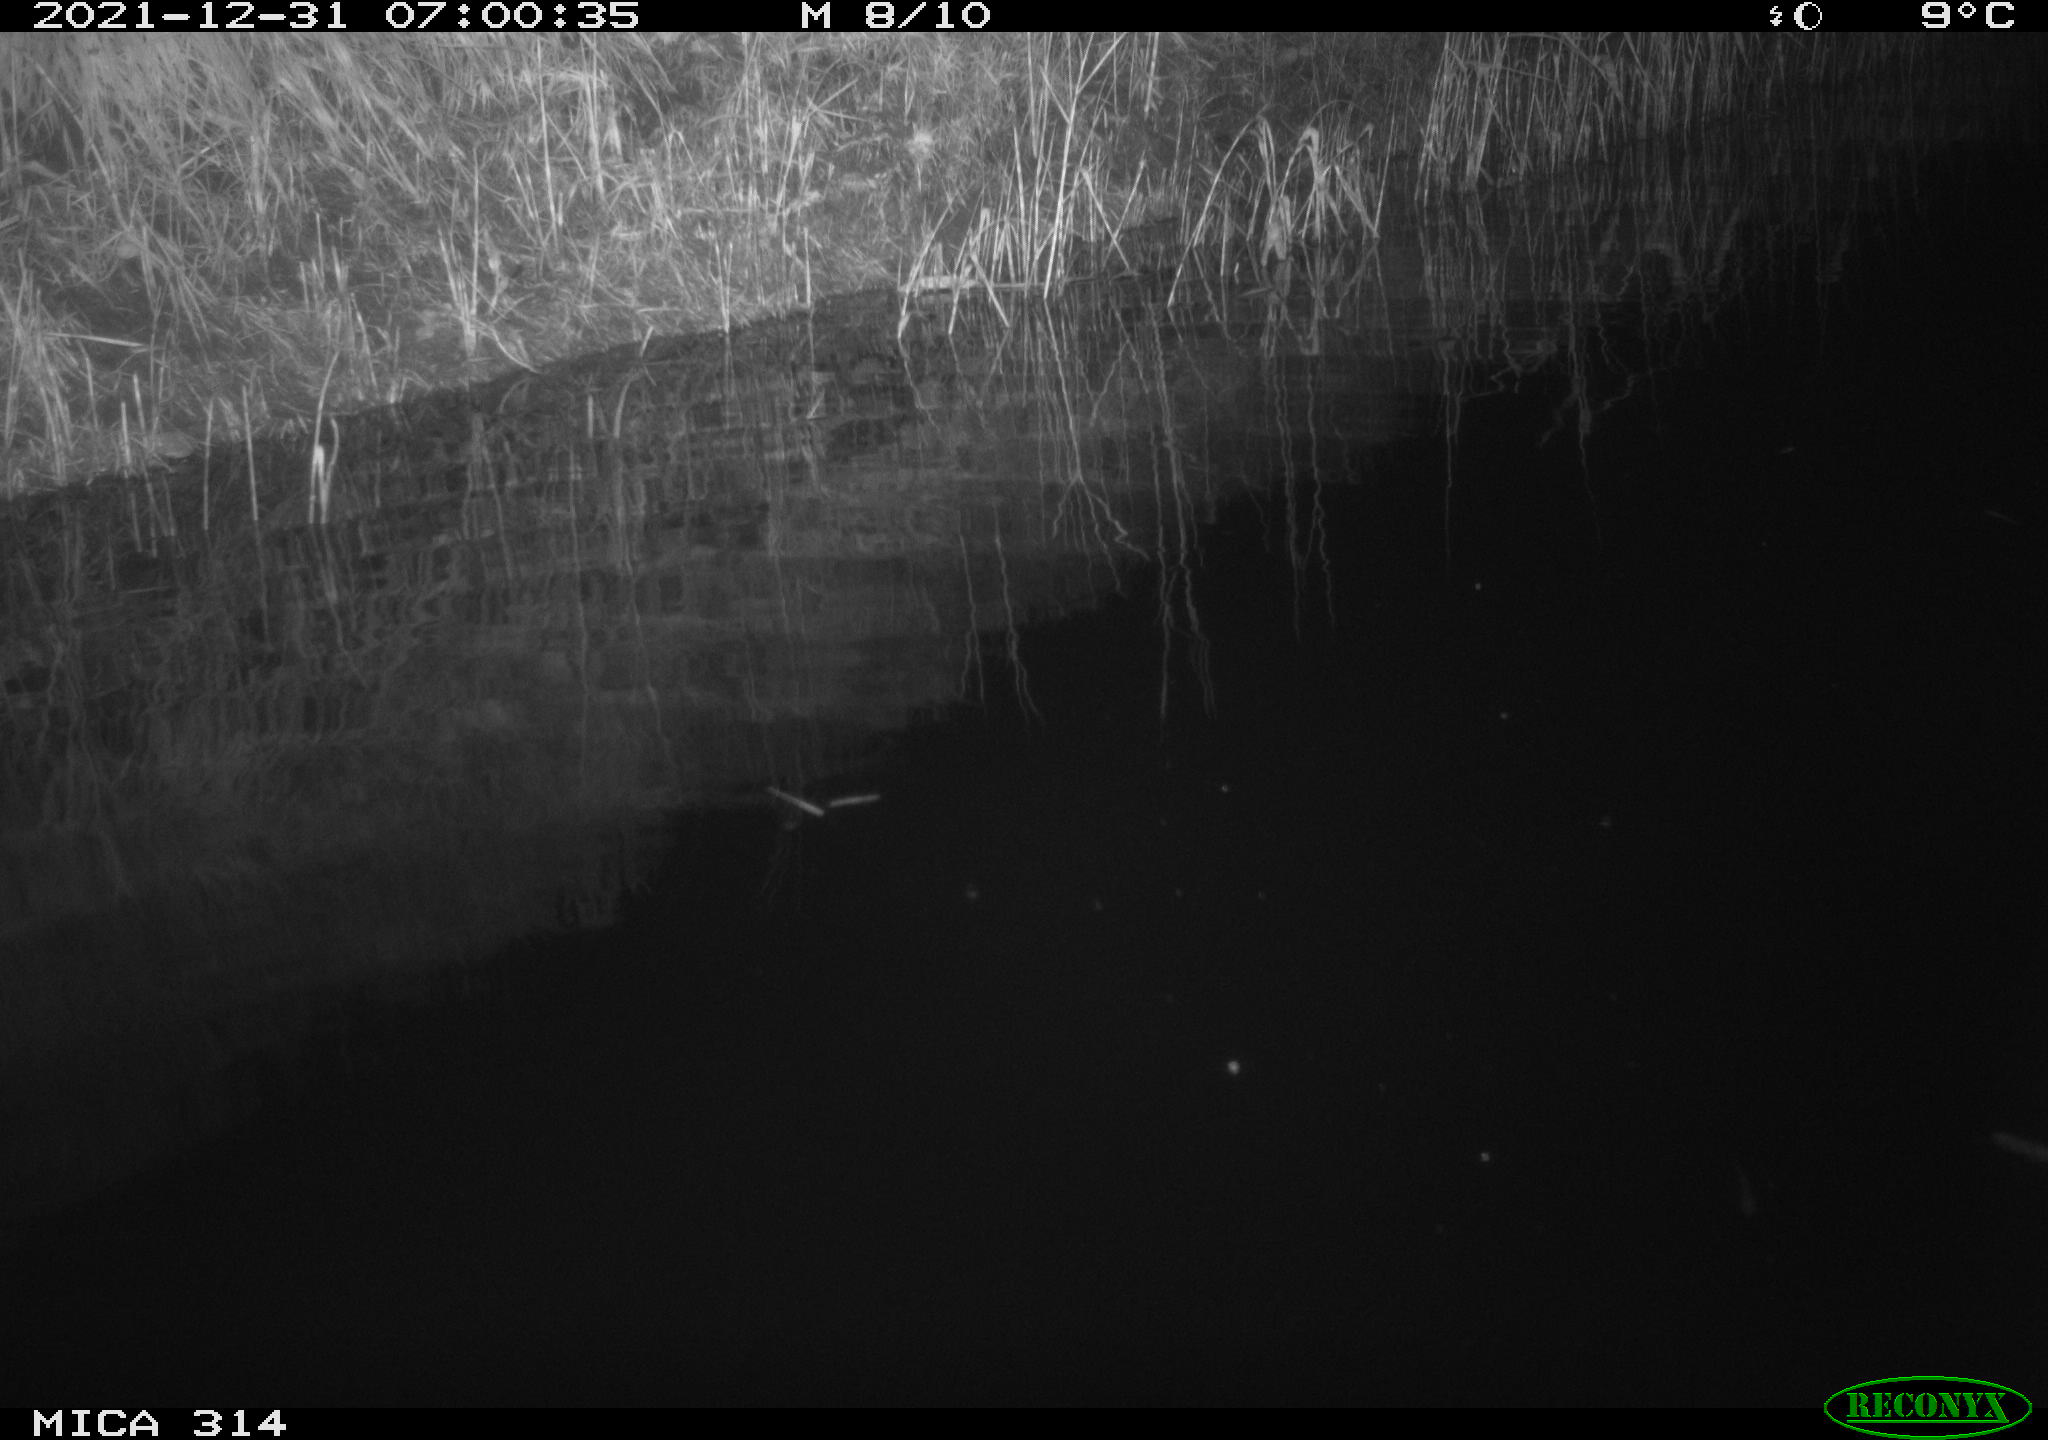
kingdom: Animalia
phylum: Chordata
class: Mammalia
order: Rodentia
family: Muridae
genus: Rattus
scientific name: Rattus norvegicus
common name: Brown rat
